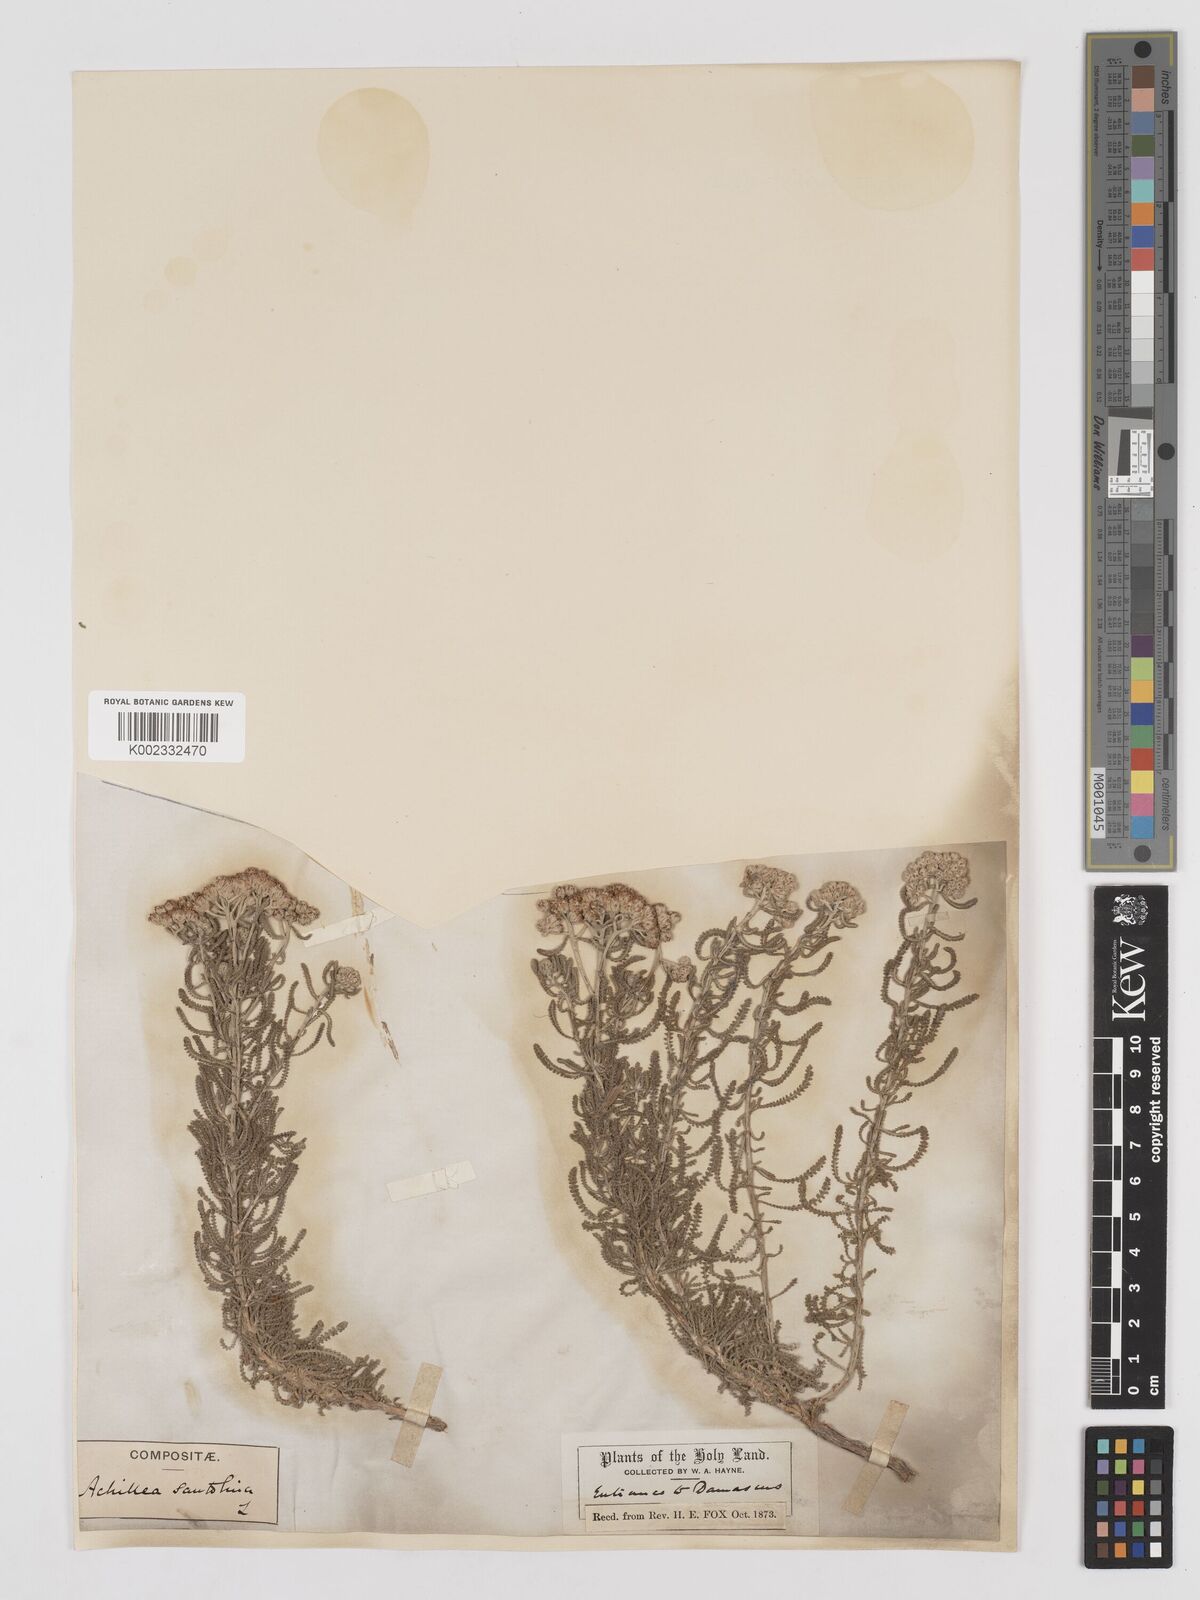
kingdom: Plantae
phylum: Tracheophyta
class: Magnoliopsida
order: Asterales
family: Asteraceae
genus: Achillea
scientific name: Achillea tenuifolia
